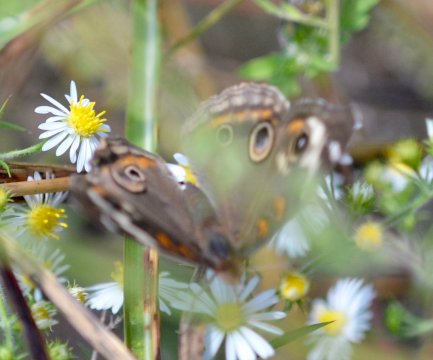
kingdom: Animalia
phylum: Arthropoda
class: Insecta
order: Lepidoptera
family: Nymphalidae
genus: Junonia
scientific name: Junonia coenia
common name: Common Buckeye
